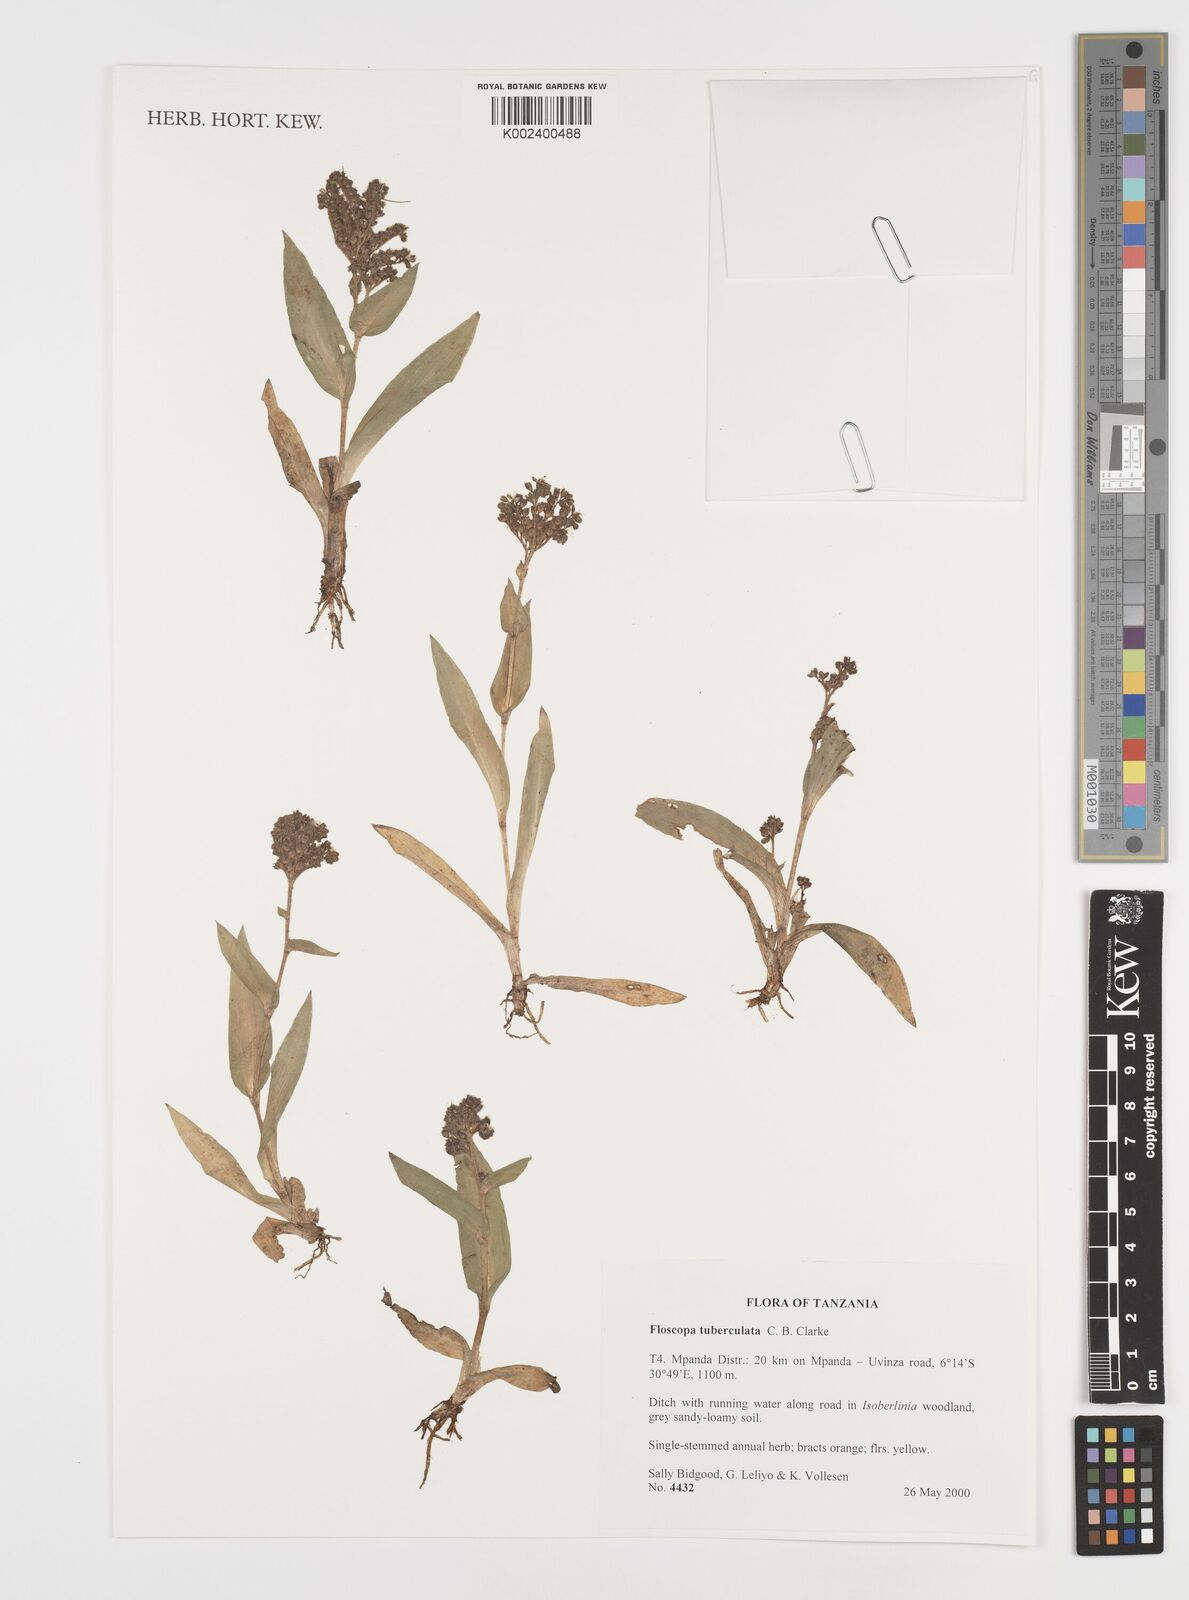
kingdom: Plantae
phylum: Tracheophyta
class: Liliopsida
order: Commelinales
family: Commelinaceae
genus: Floscopa
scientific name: Floscopa tuberculata
